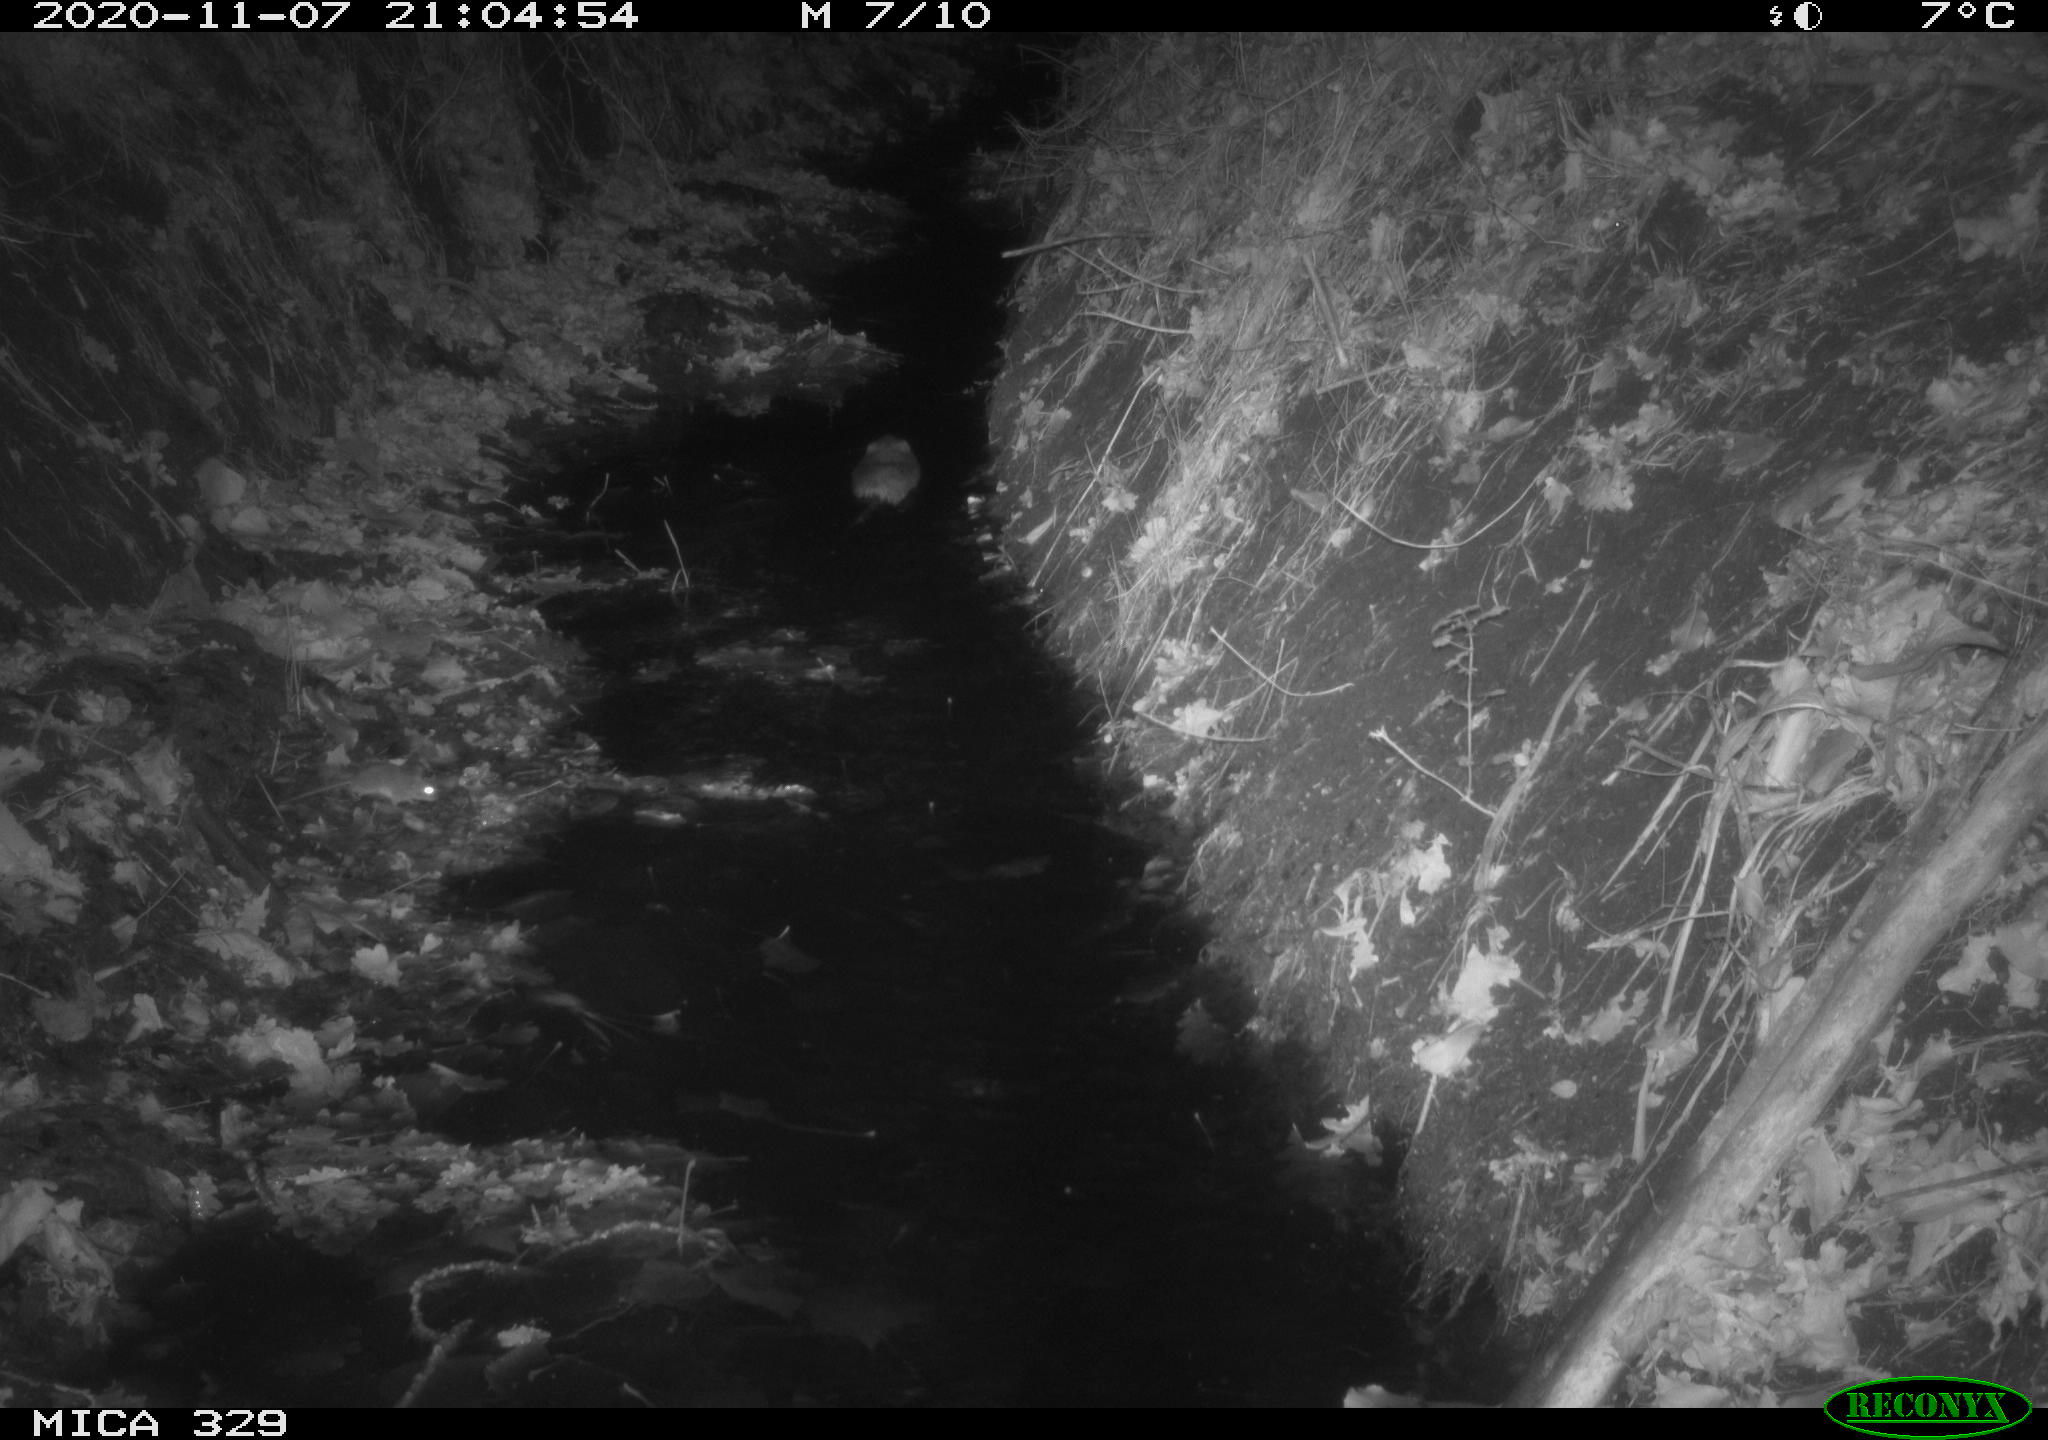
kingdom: Animalia
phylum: Chordata
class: Mammalia
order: Rodentia
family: Cricetidae
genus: Ondatra
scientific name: Ondatra zibethicus
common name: Muskrat
